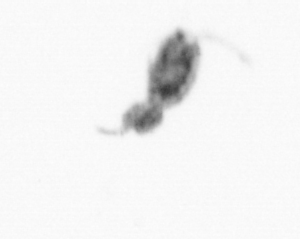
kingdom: Animalia
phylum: Arthropoda
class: Copepoda
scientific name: Copepoda
